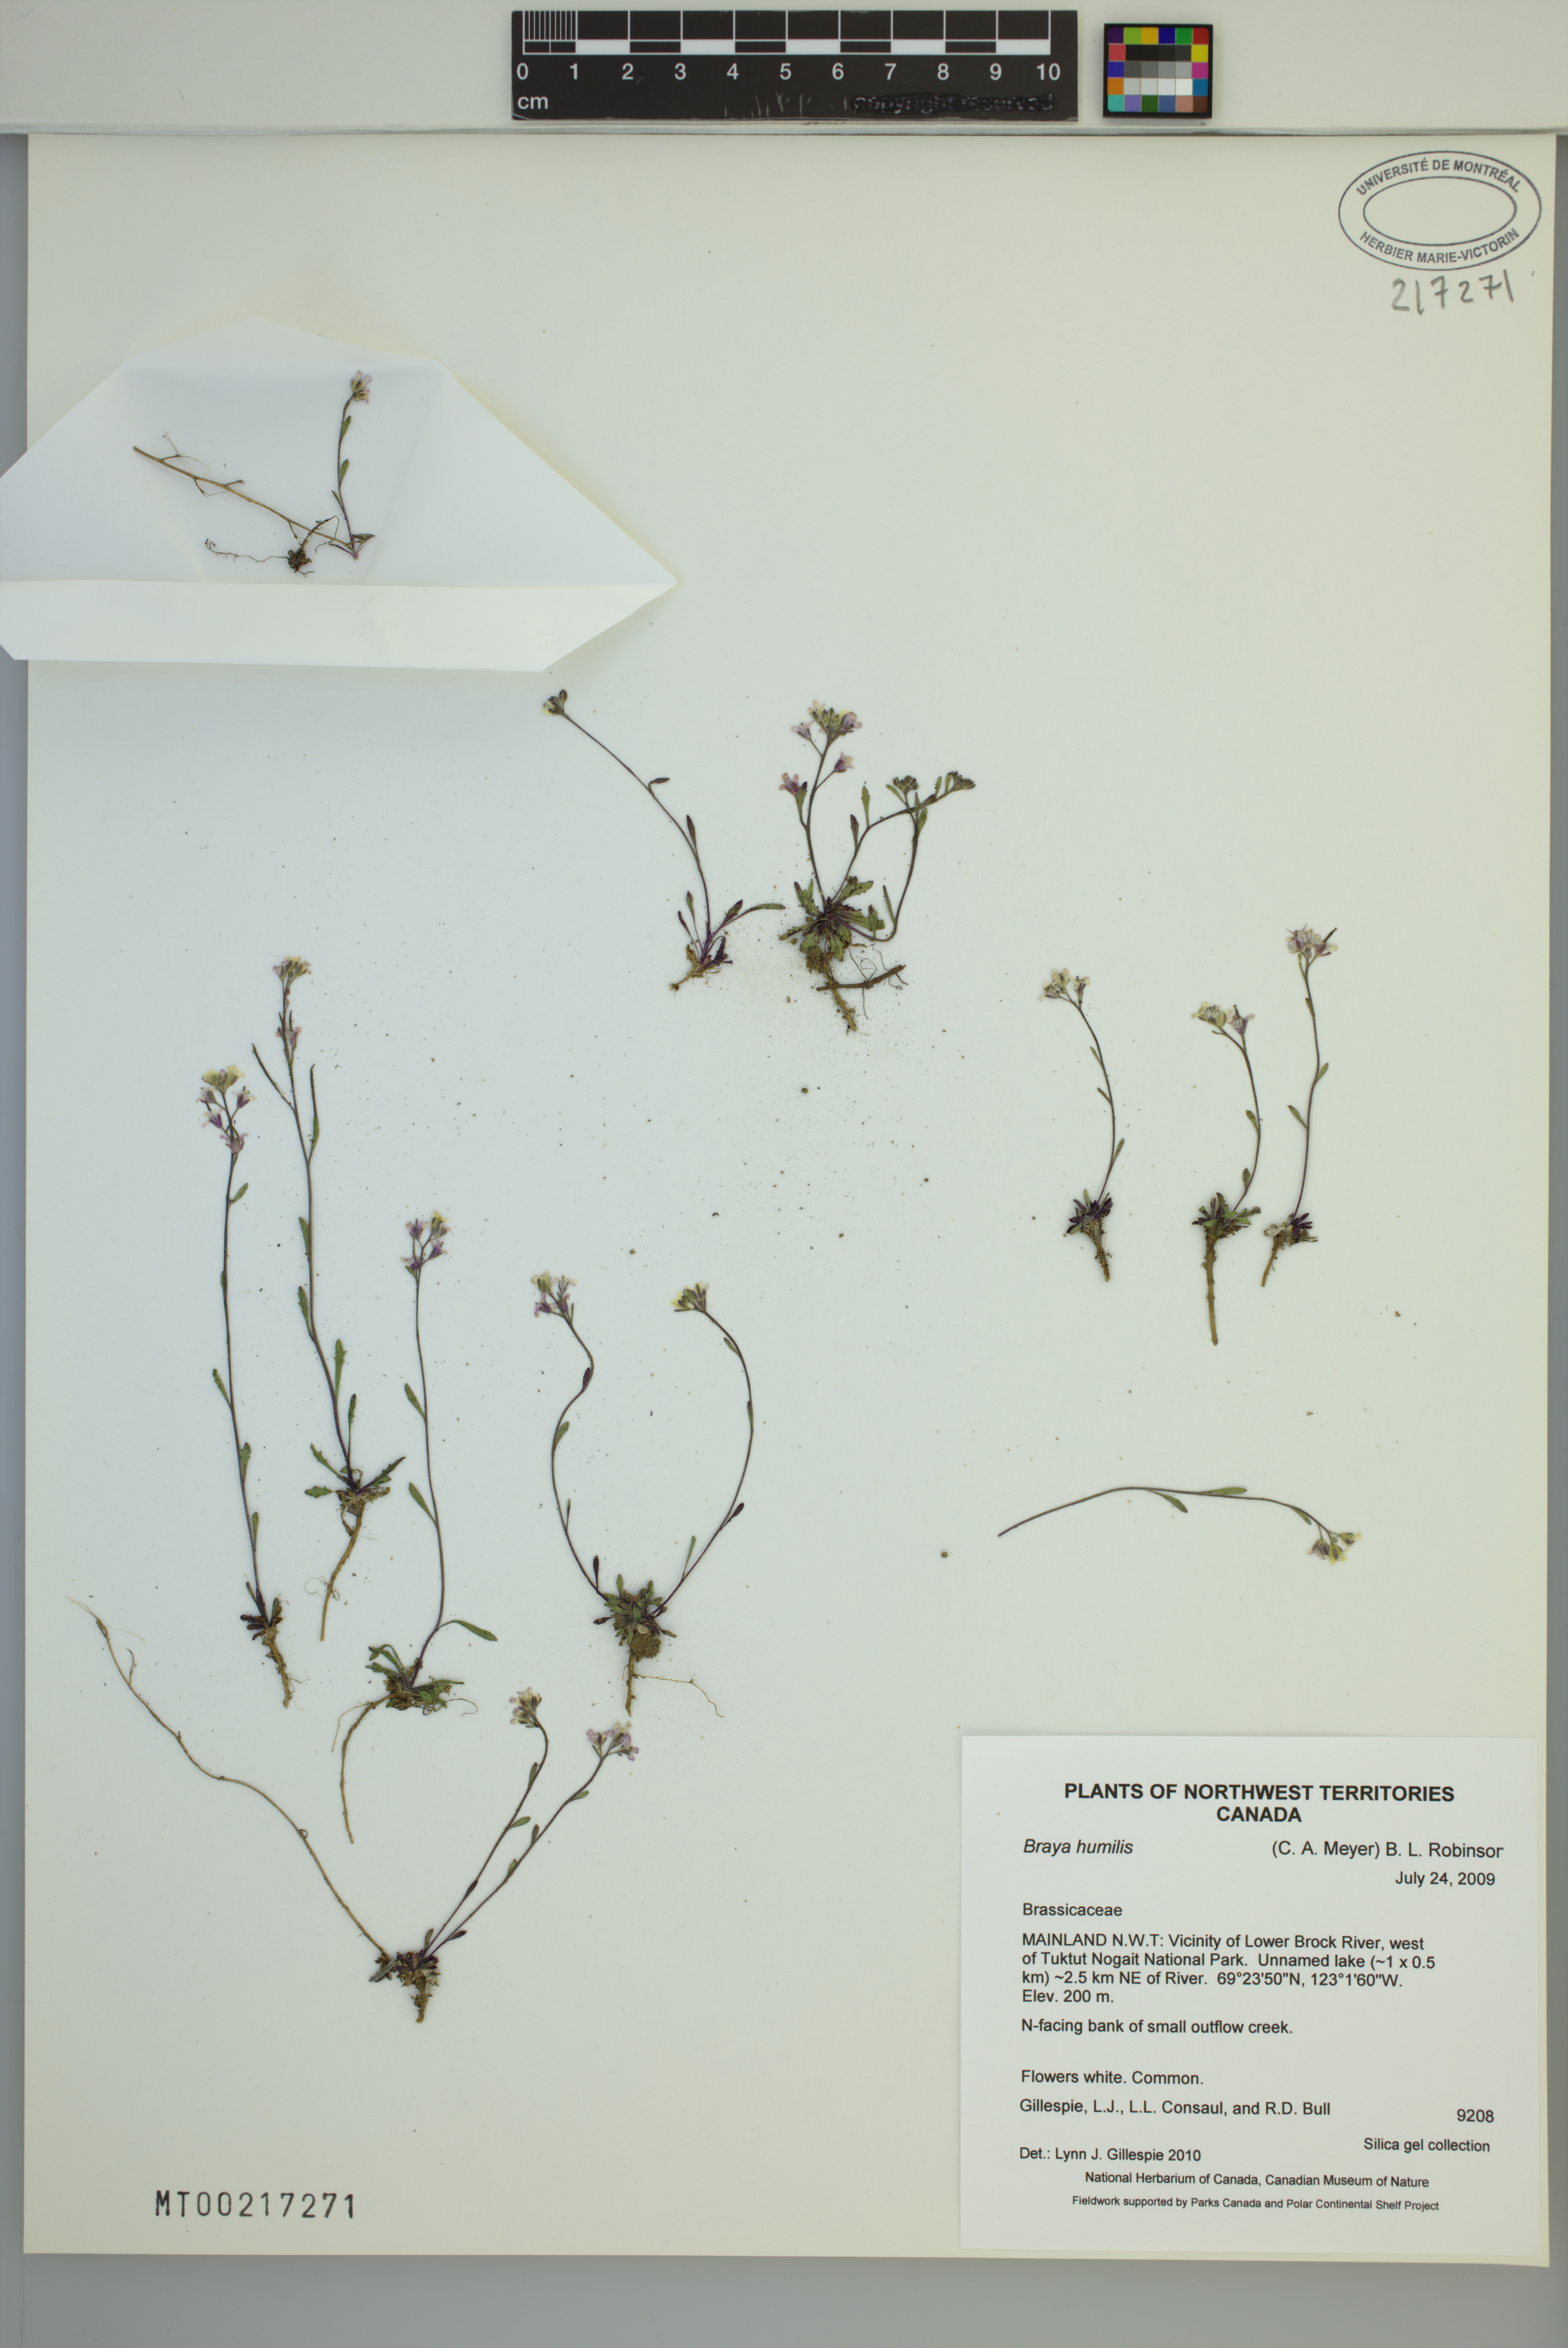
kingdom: Plantae
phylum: Tracheophyta
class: Magnoliopsida
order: Brassicales
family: Brassicaceae
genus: Braya
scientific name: Braya humilis
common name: Alpine northern rockcress
